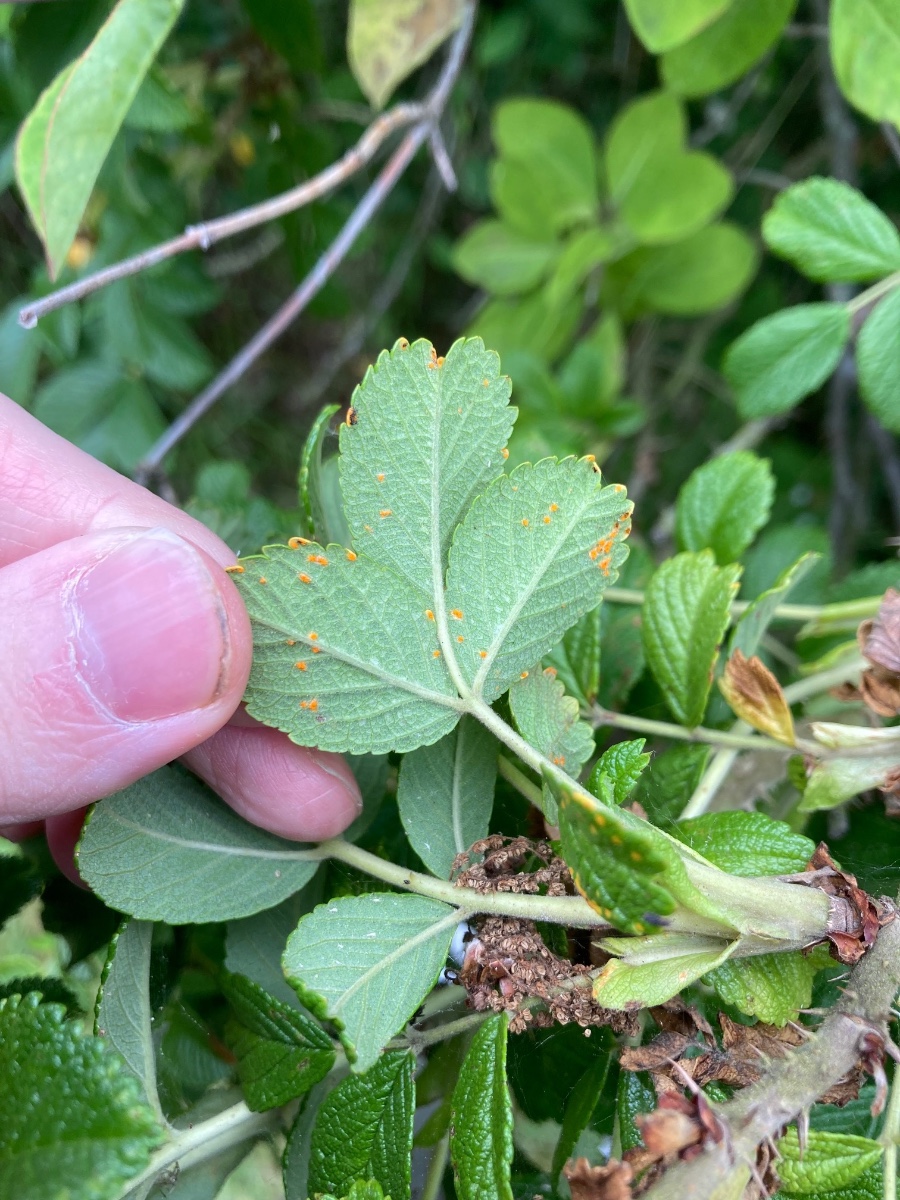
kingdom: Fungi
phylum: Basidiomycota
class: Pucciniomycetes
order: Pucciniales
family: Phragmidiaceae
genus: Phragmidium
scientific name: Phragmidium mucronatum
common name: rose-flercellerust
